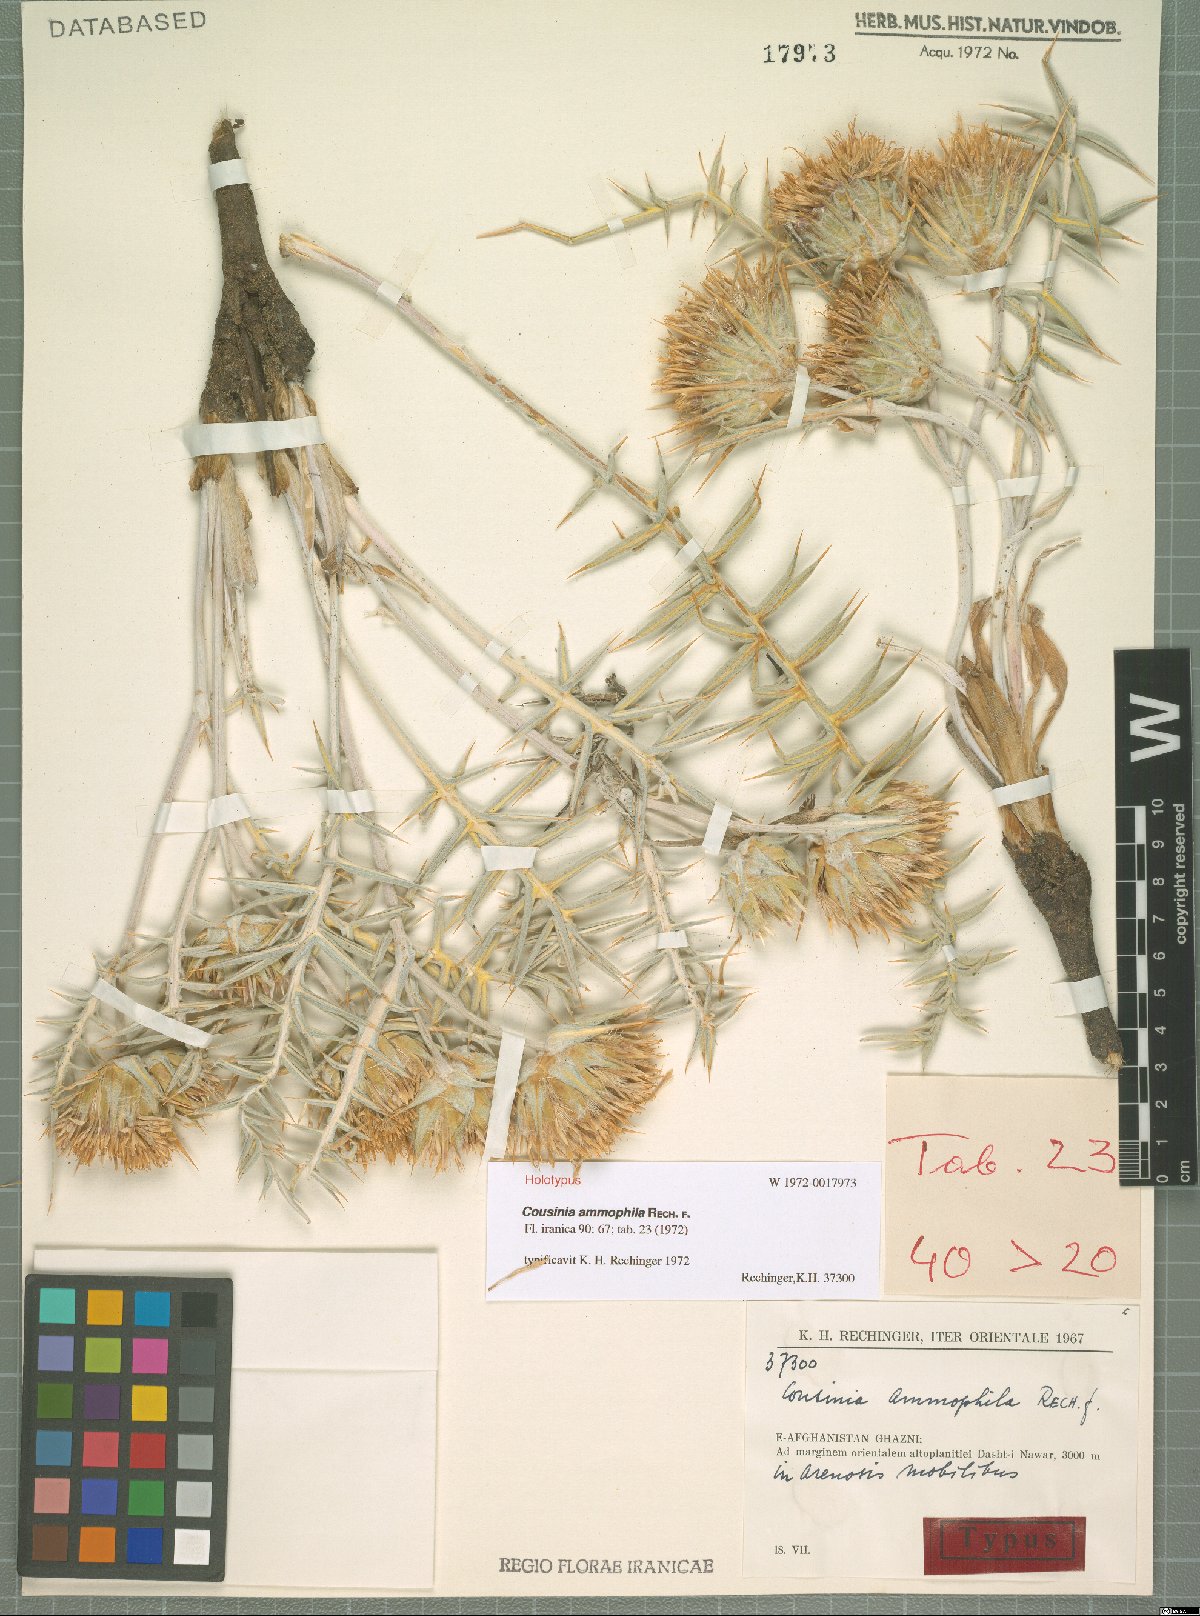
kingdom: Plantae
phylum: Tracheophyta
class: Magnoliopsida
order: Asterales
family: Asteraceae
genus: Cousinia
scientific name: Cousinia ammophila
